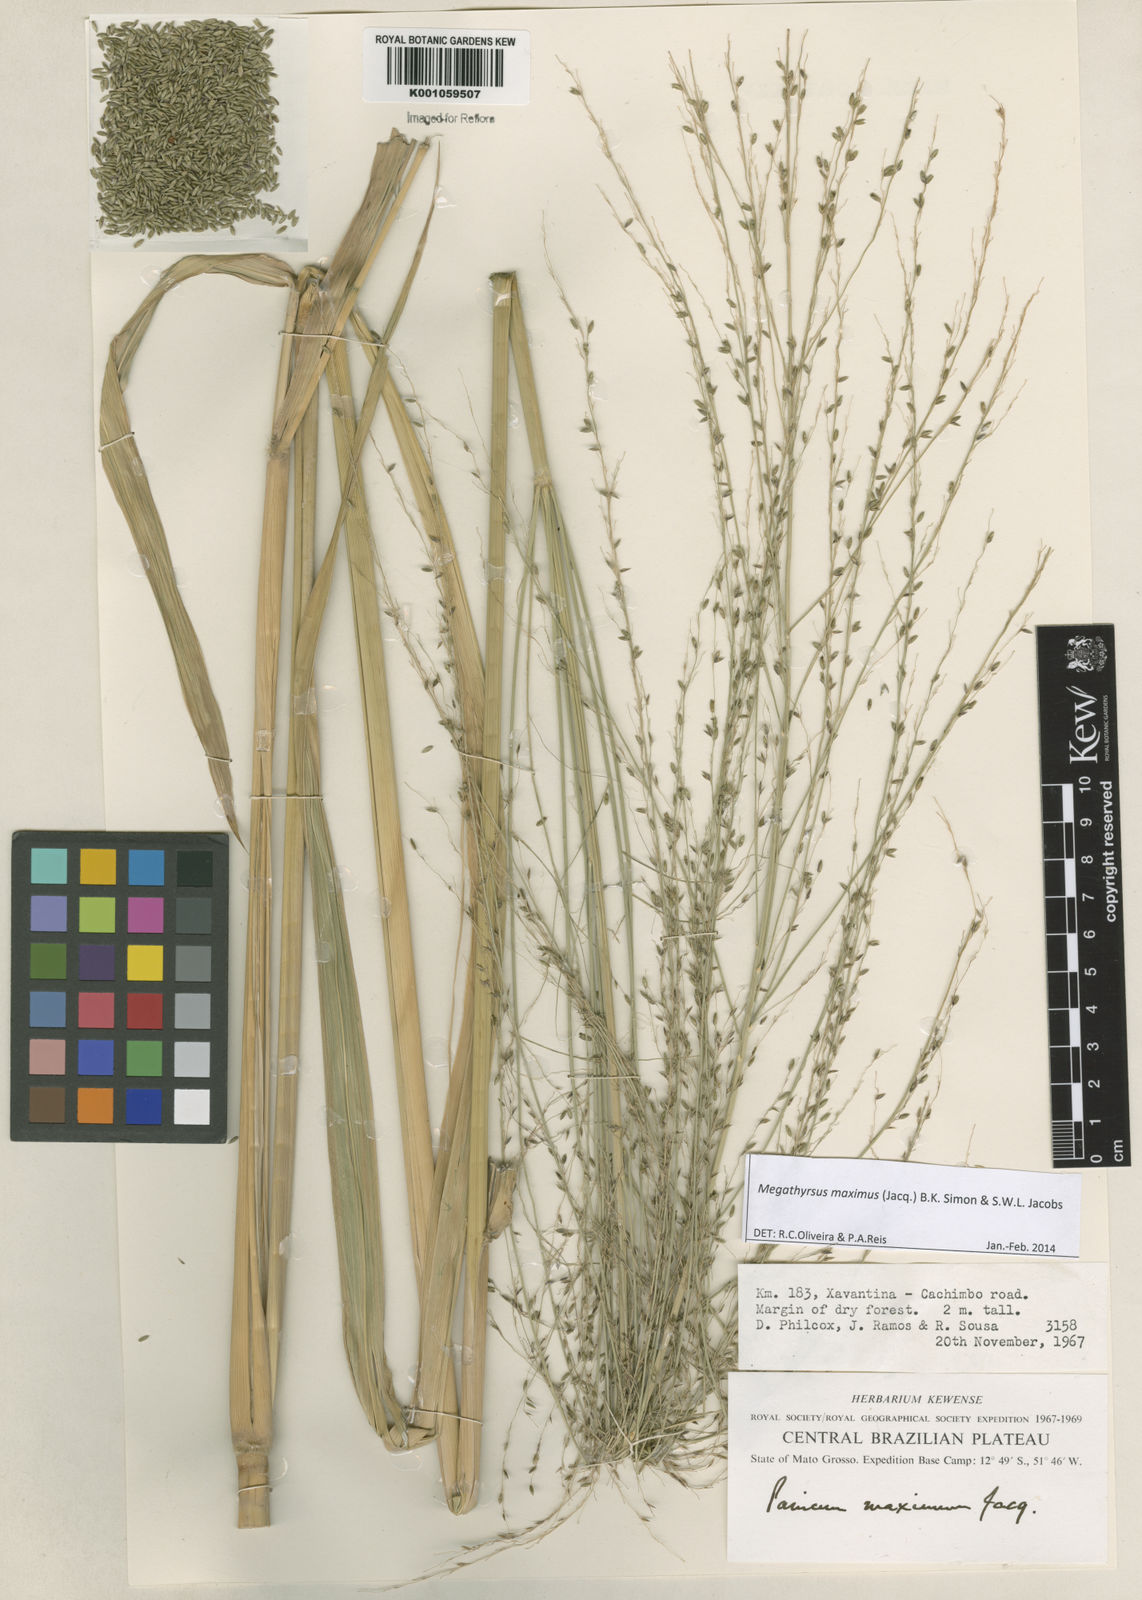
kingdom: Plantae
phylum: Tracheophyta
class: Liliopsida
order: Poales
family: Poaceae
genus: Megathyrsus
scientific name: Megathyrsus maximus
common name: Guineagrass
